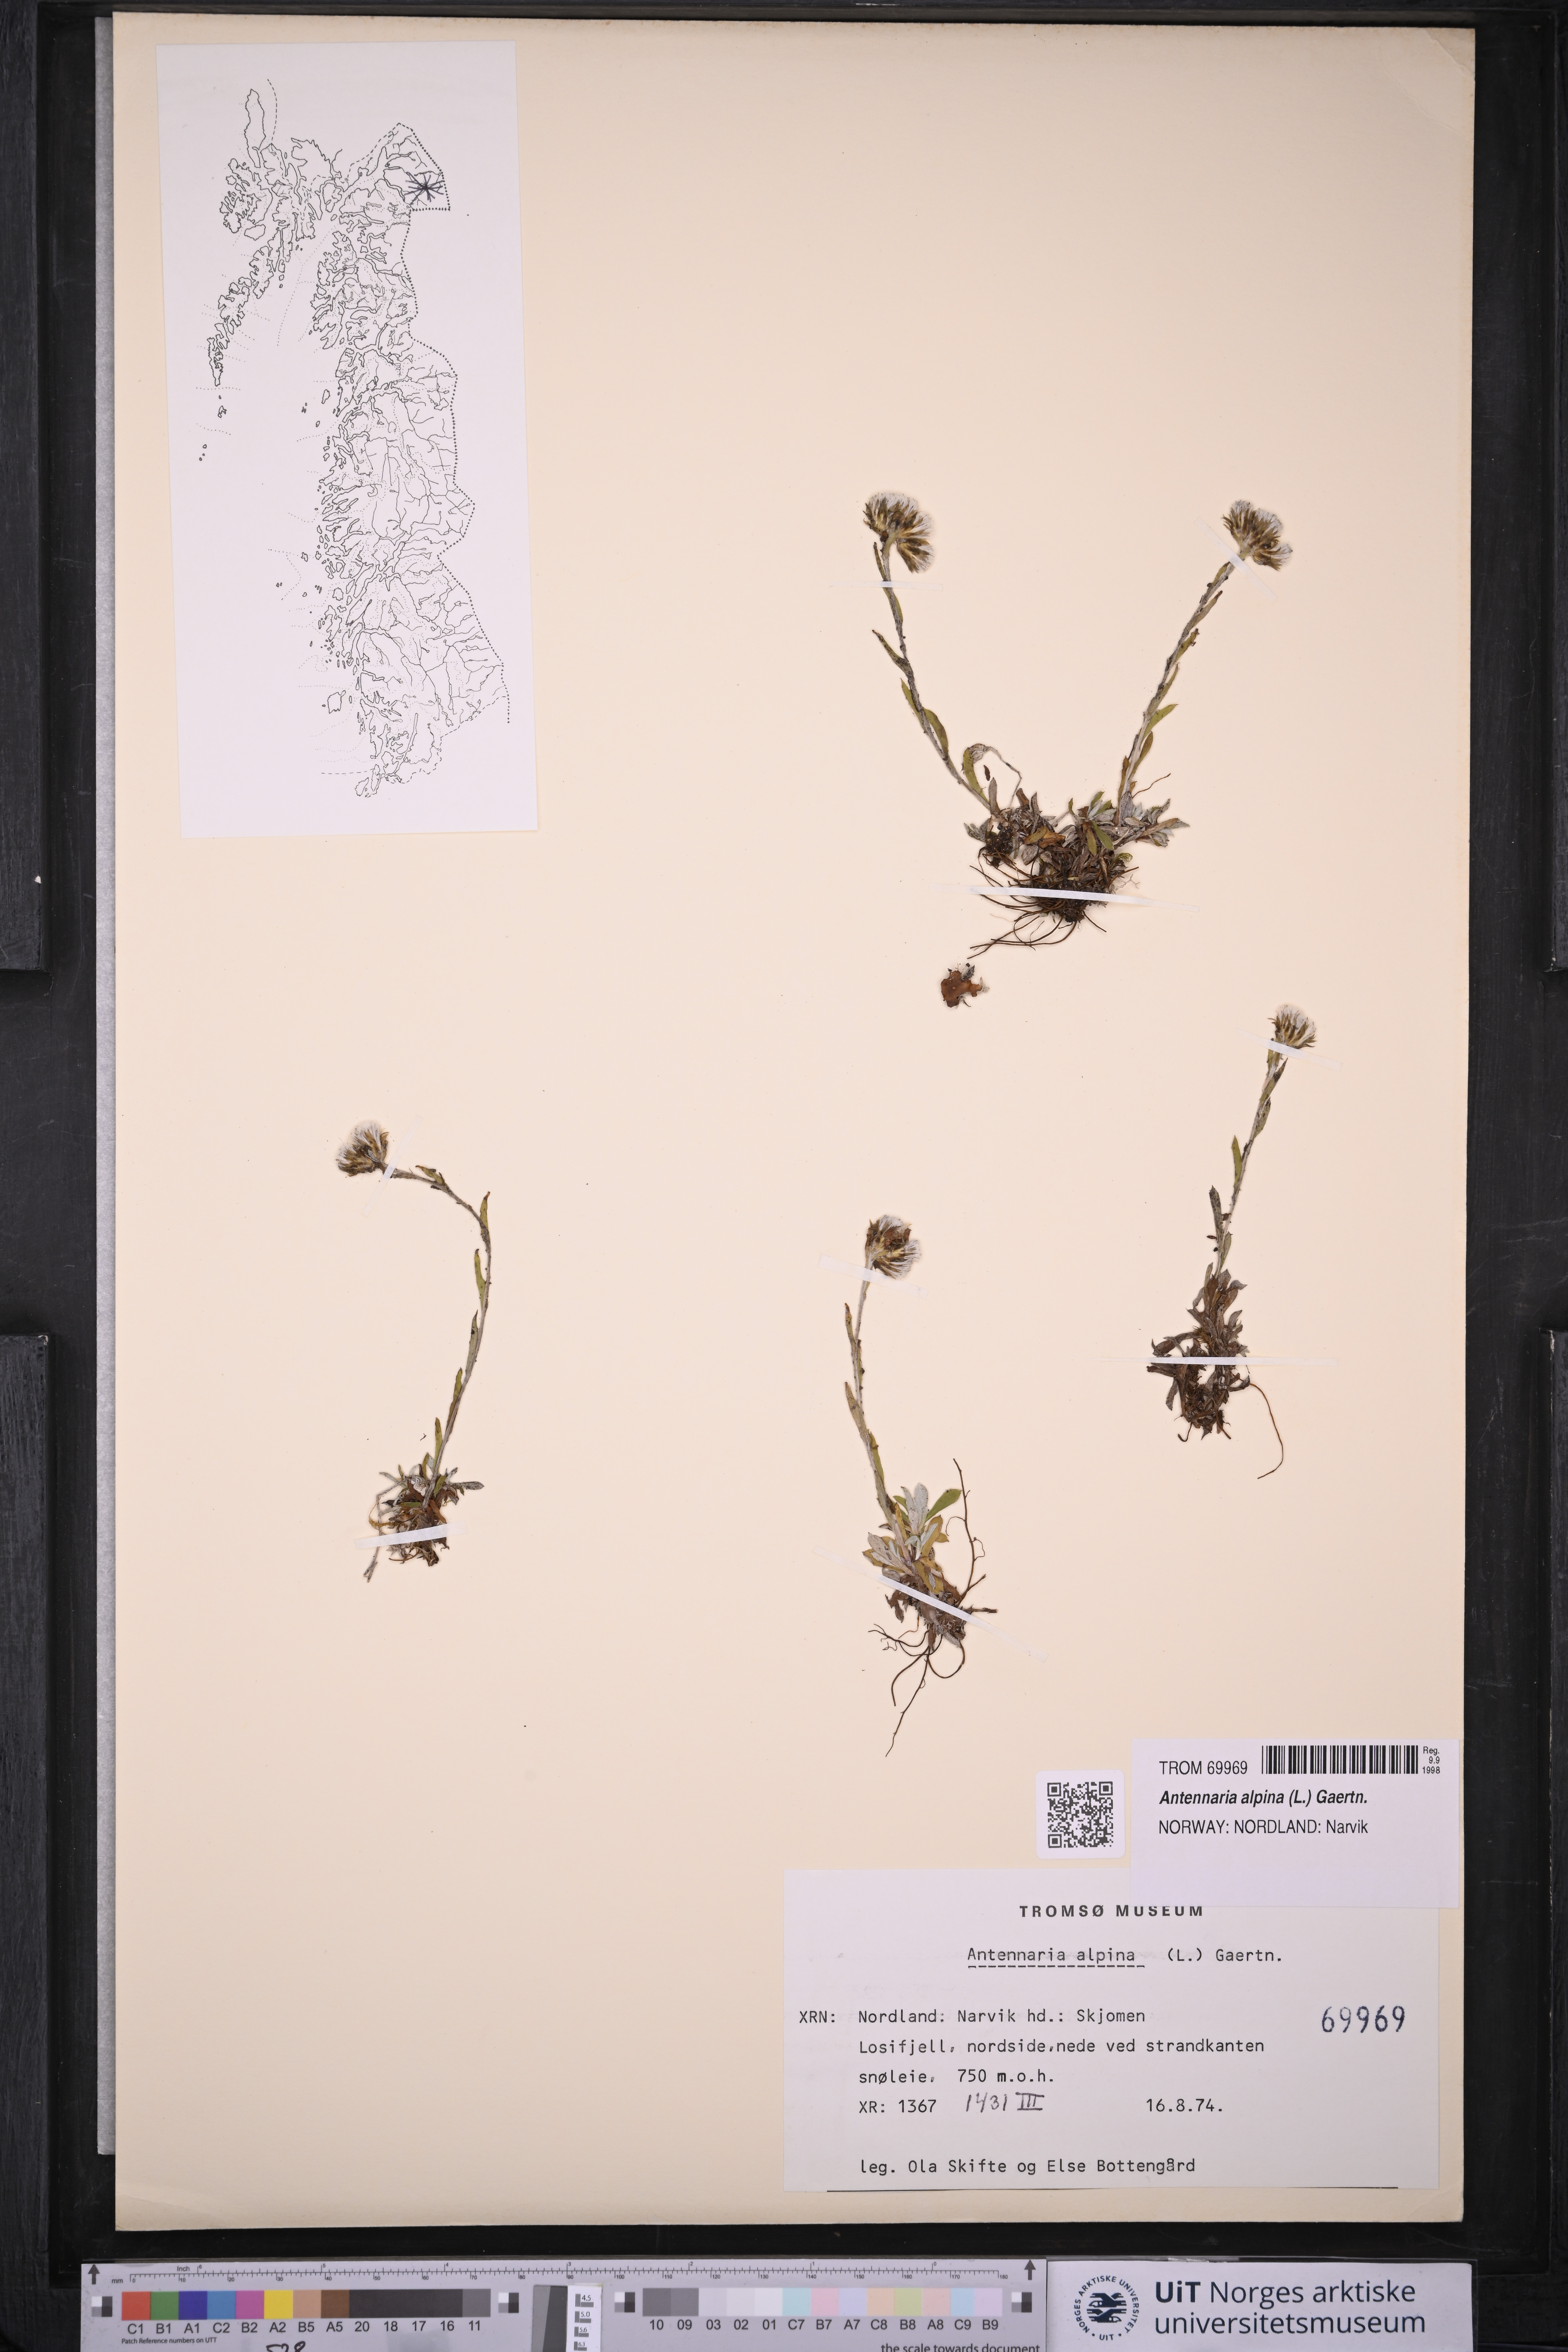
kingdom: Plantae
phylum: Tracheophyta
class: Magnoliopsida
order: Asterales
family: Asteraceae
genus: Antennaria
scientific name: Antennaria alpina
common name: Alpine pussytoes
